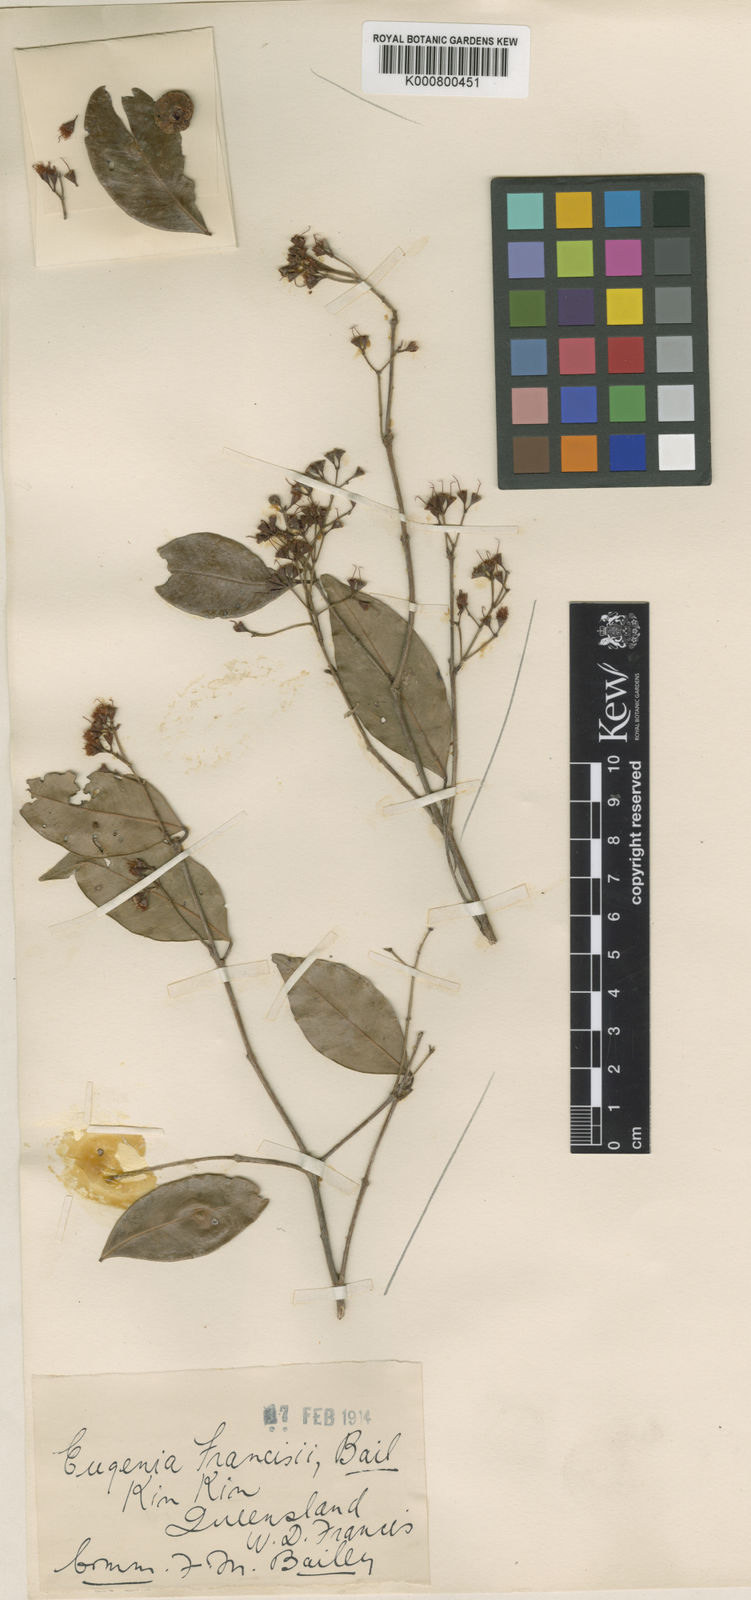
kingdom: Plantae
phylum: Tracheophyta
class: Magnoliopsida
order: Myrtales
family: Myrtaceae
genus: Syzygium
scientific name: Syzygium francisii
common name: Giant water-gum
